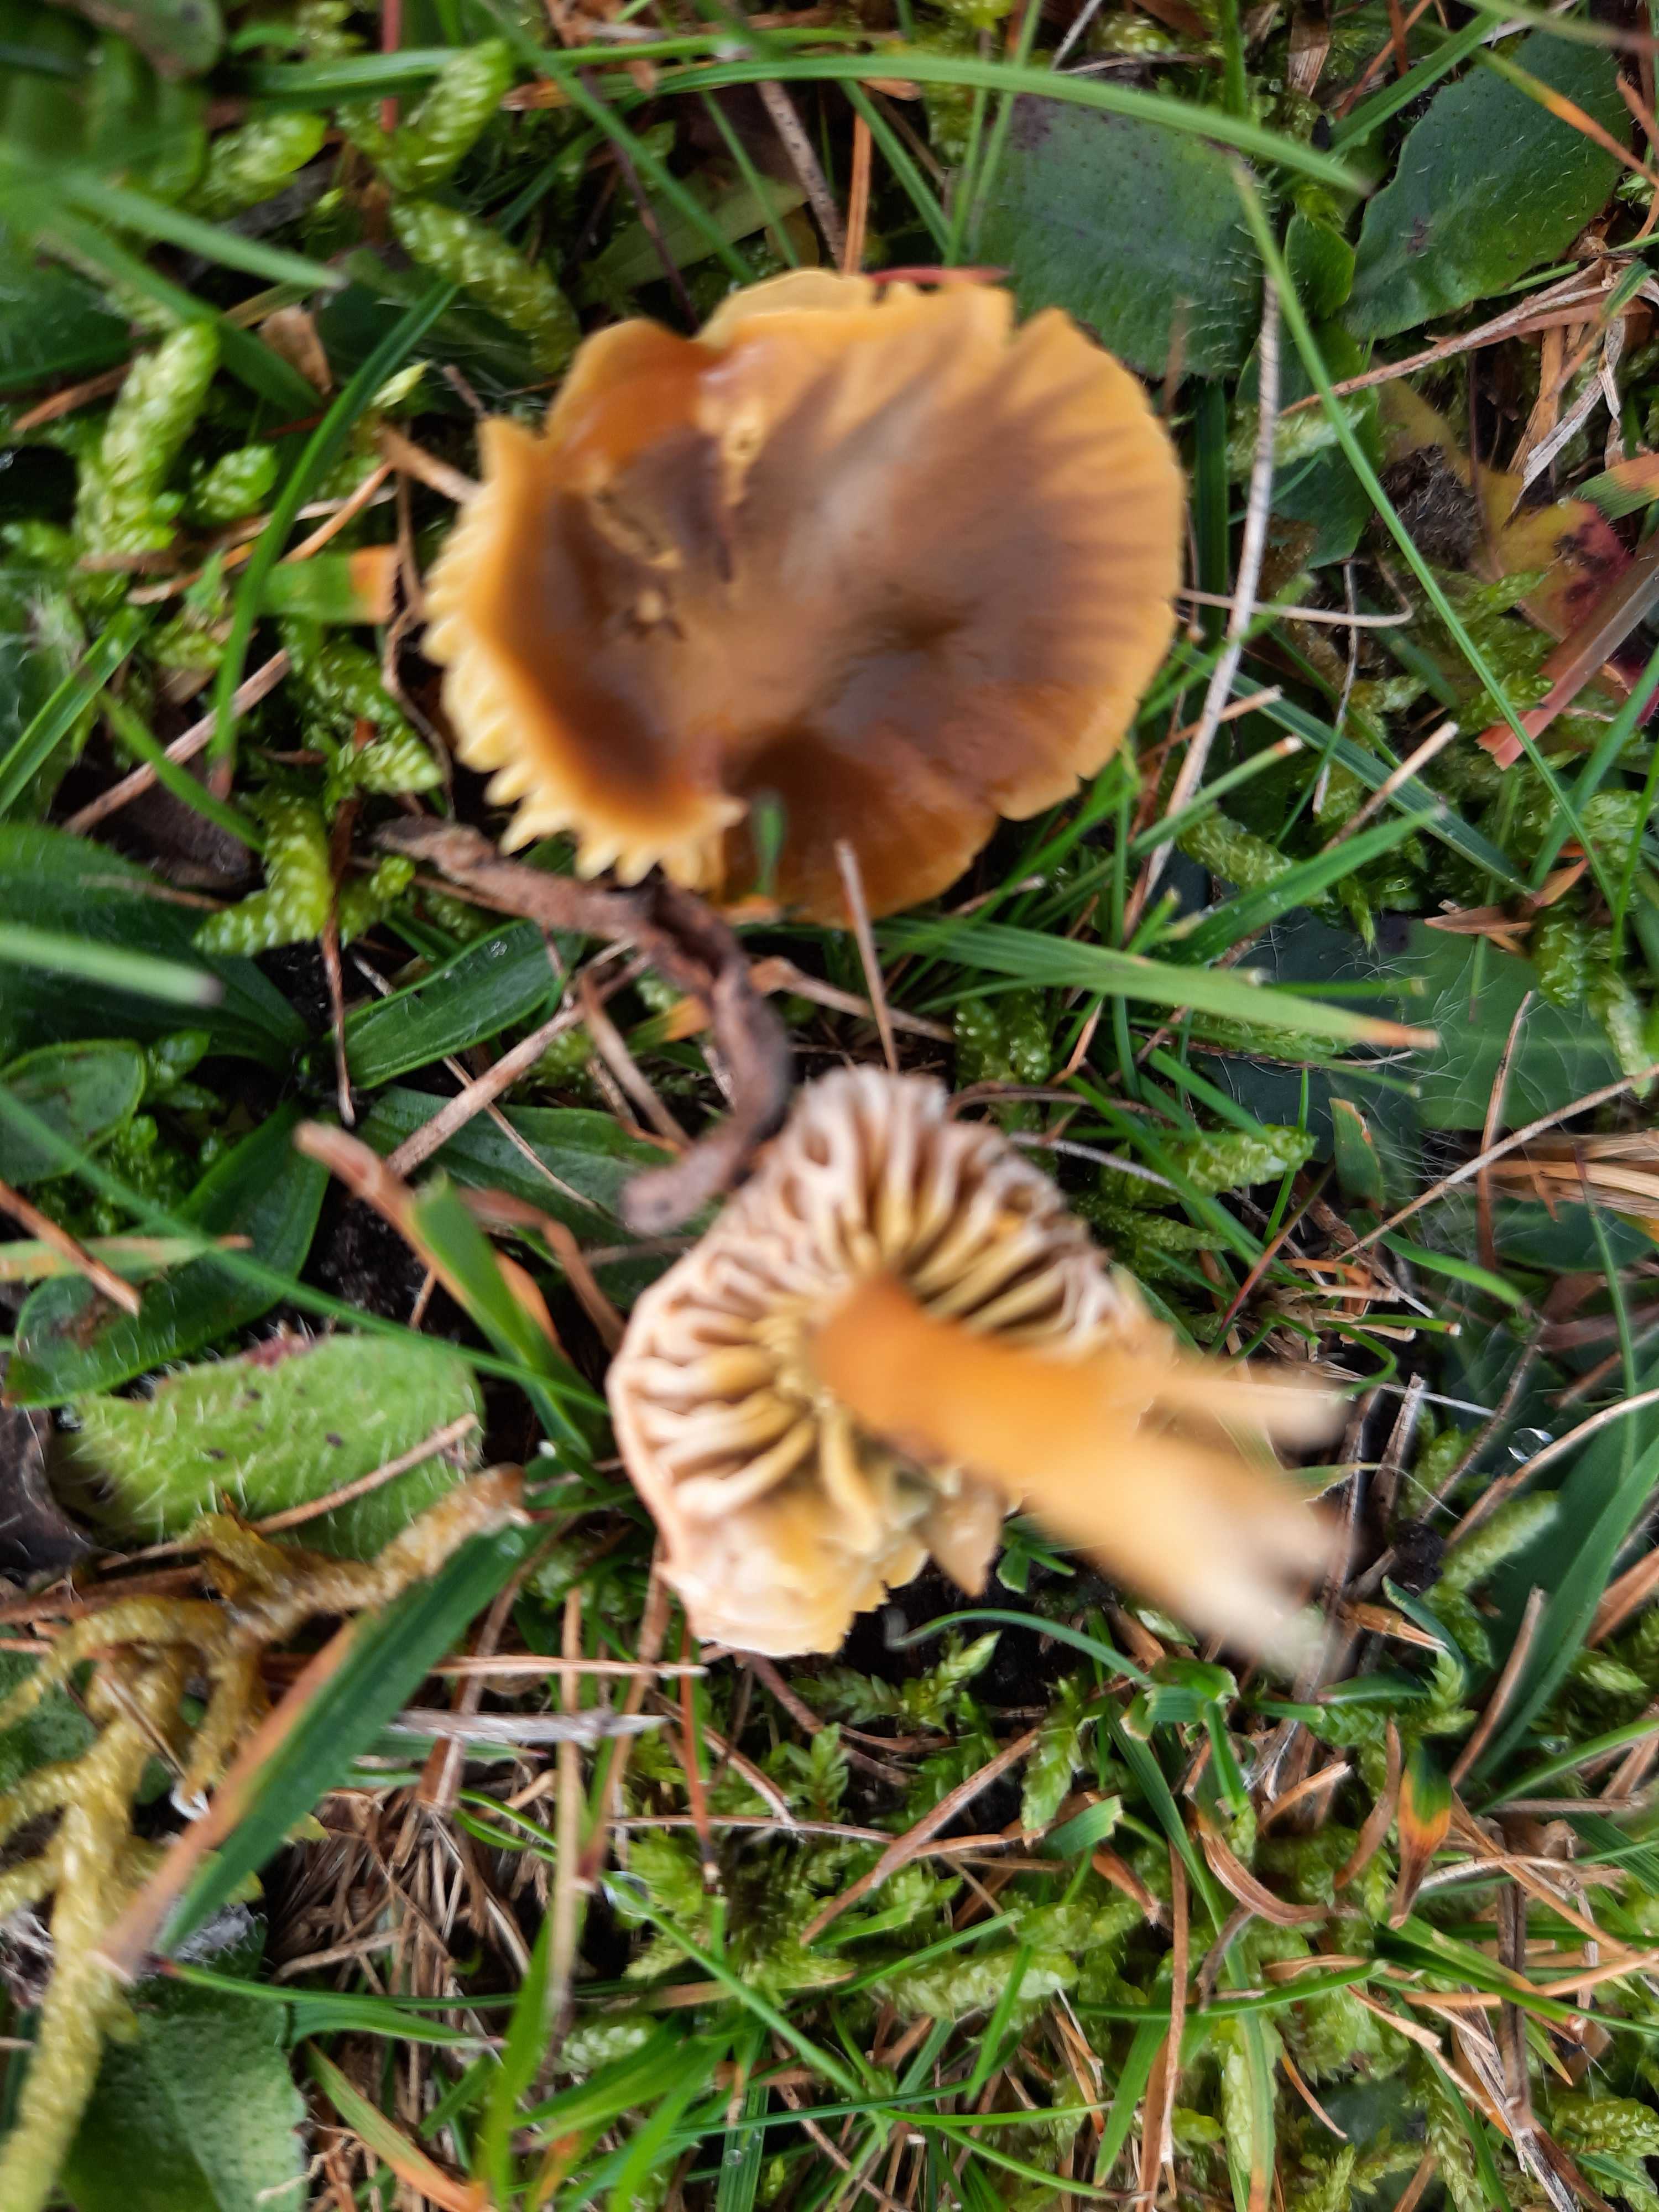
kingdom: Fungi
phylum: Basidiomycota
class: Agaricomycetes
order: Agaricales
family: Hygrophoraceae
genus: Gliophorus
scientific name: Gliophorus psittacinus
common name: papegøje-vokshat
